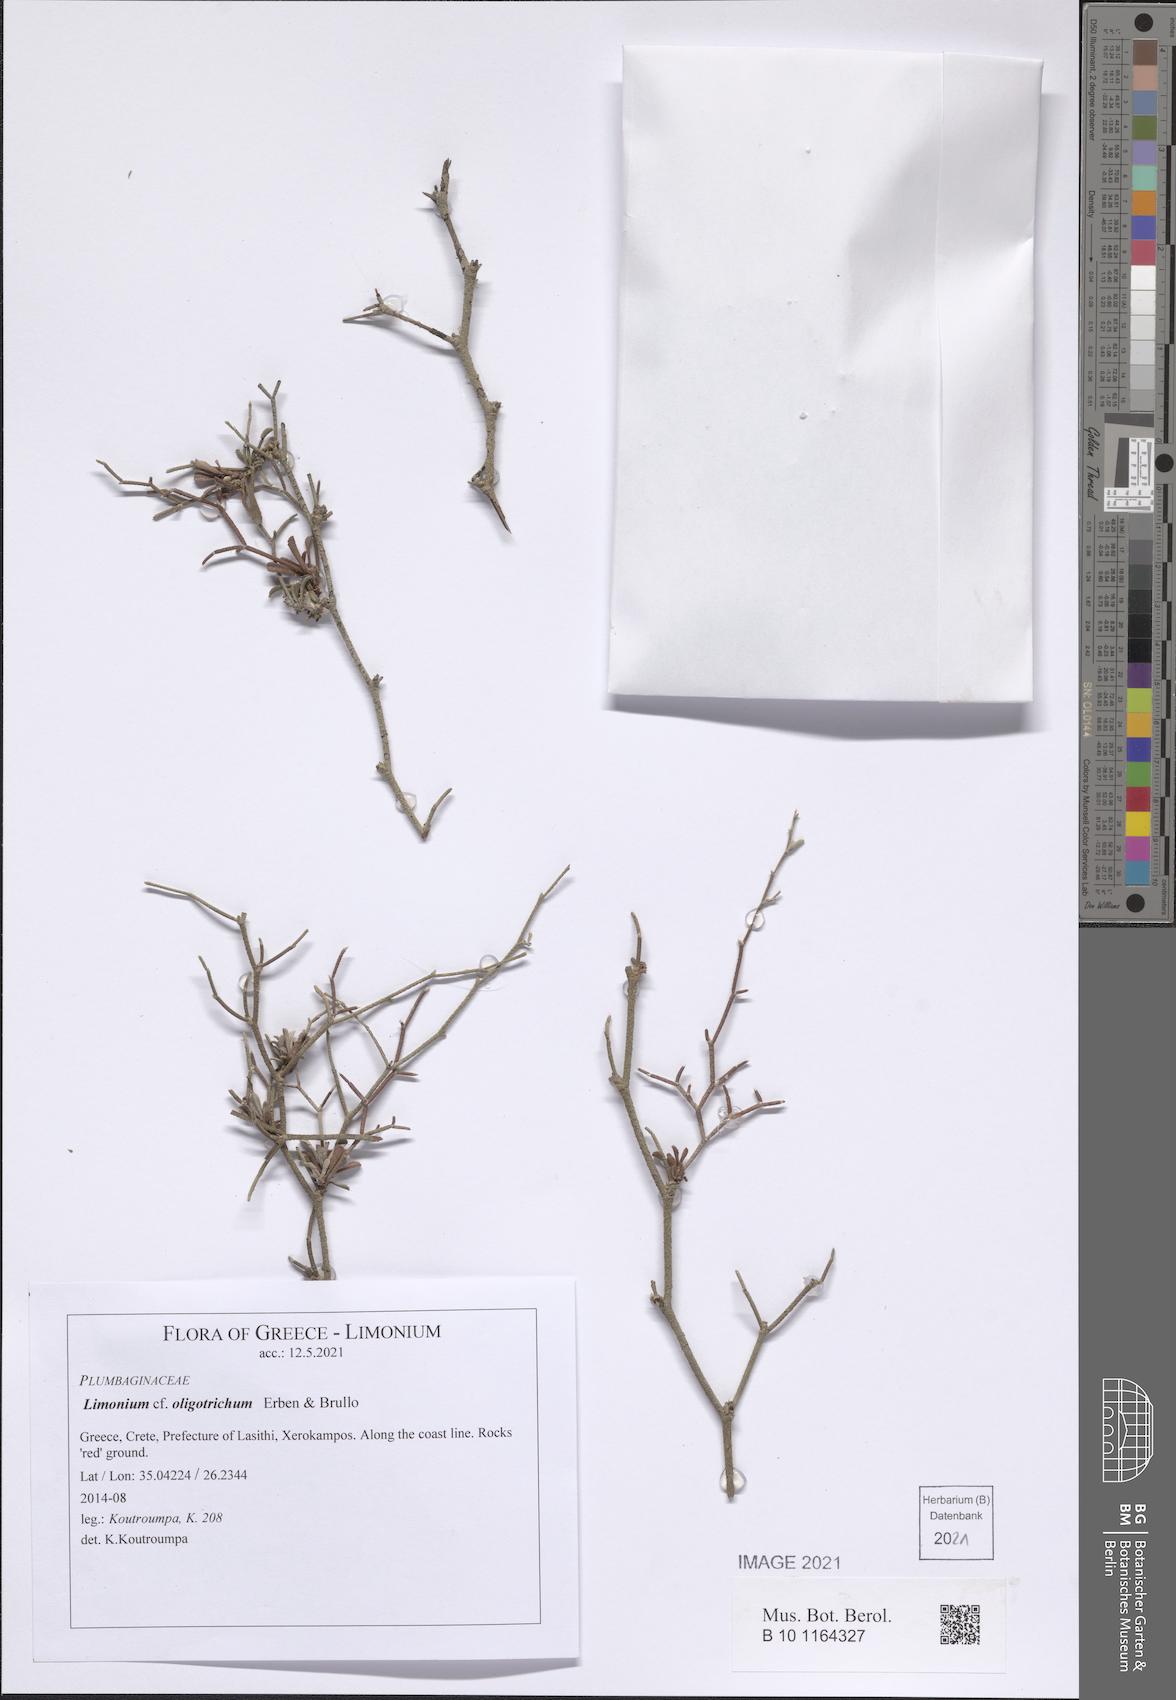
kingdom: Plantae
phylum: Tracheophyta
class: Magnoliopsida
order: Caryophyllales
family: Plumbaginaceae
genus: Limonium
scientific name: Limonium oligotrichum
